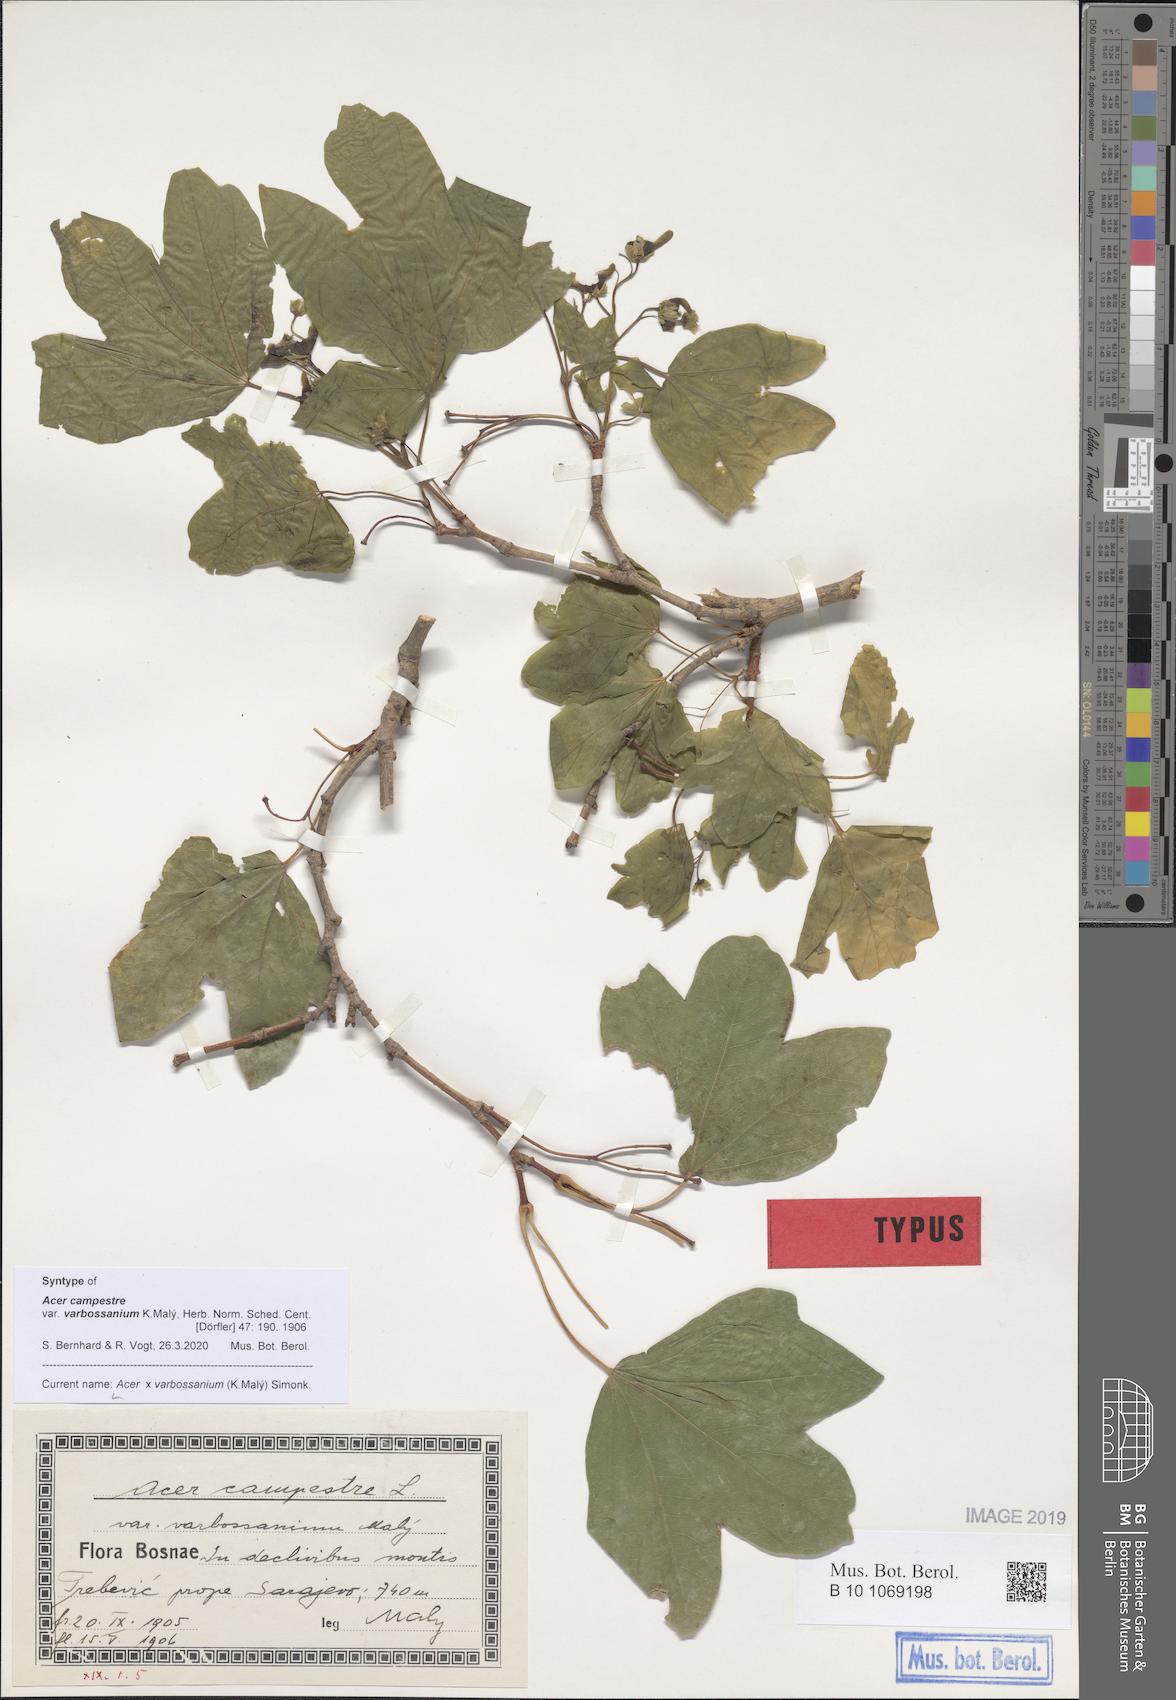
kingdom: Plantae
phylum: Tracheophyta
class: Magnoliopsida
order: Sapindales
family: Sapindaceae
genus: Acer
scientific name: Acer varbossanium
